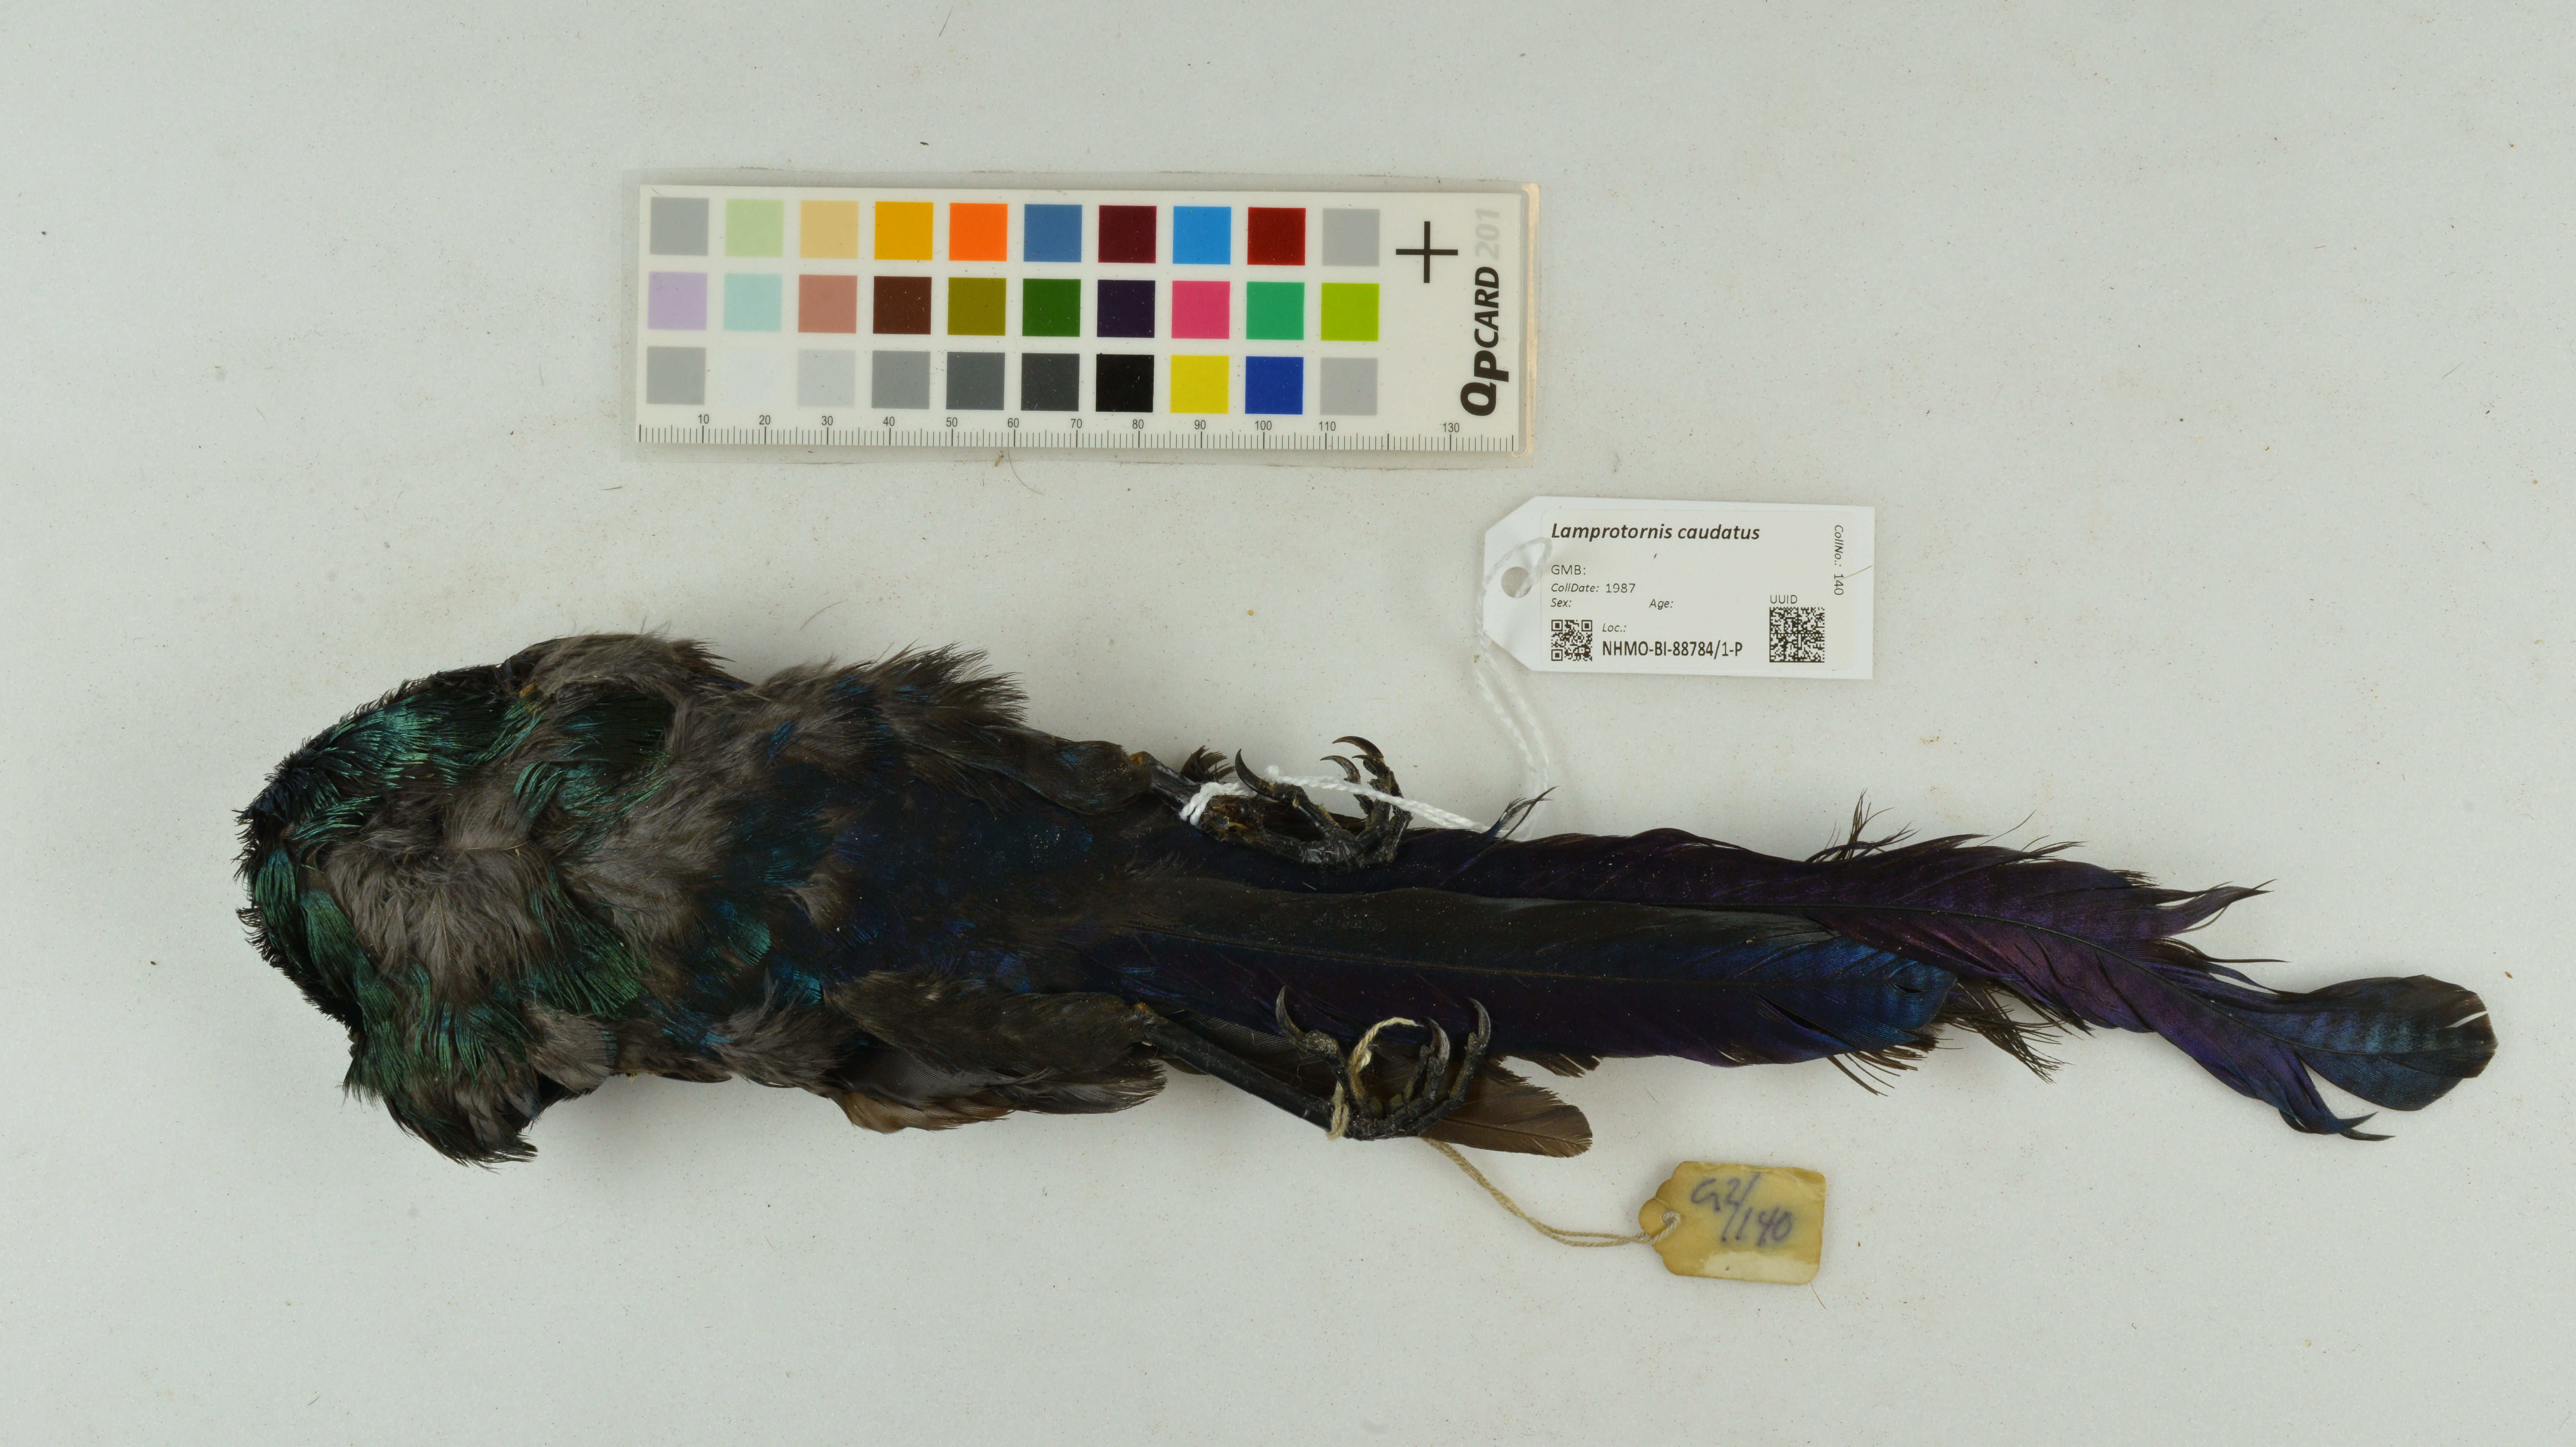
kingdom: Animalia
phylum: Chordata
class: Aves
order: Passeriformes
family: Sturnidae
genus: Lamprotornis
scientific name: Lamprotornis caudatus
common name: Long-tailed glossy starling
